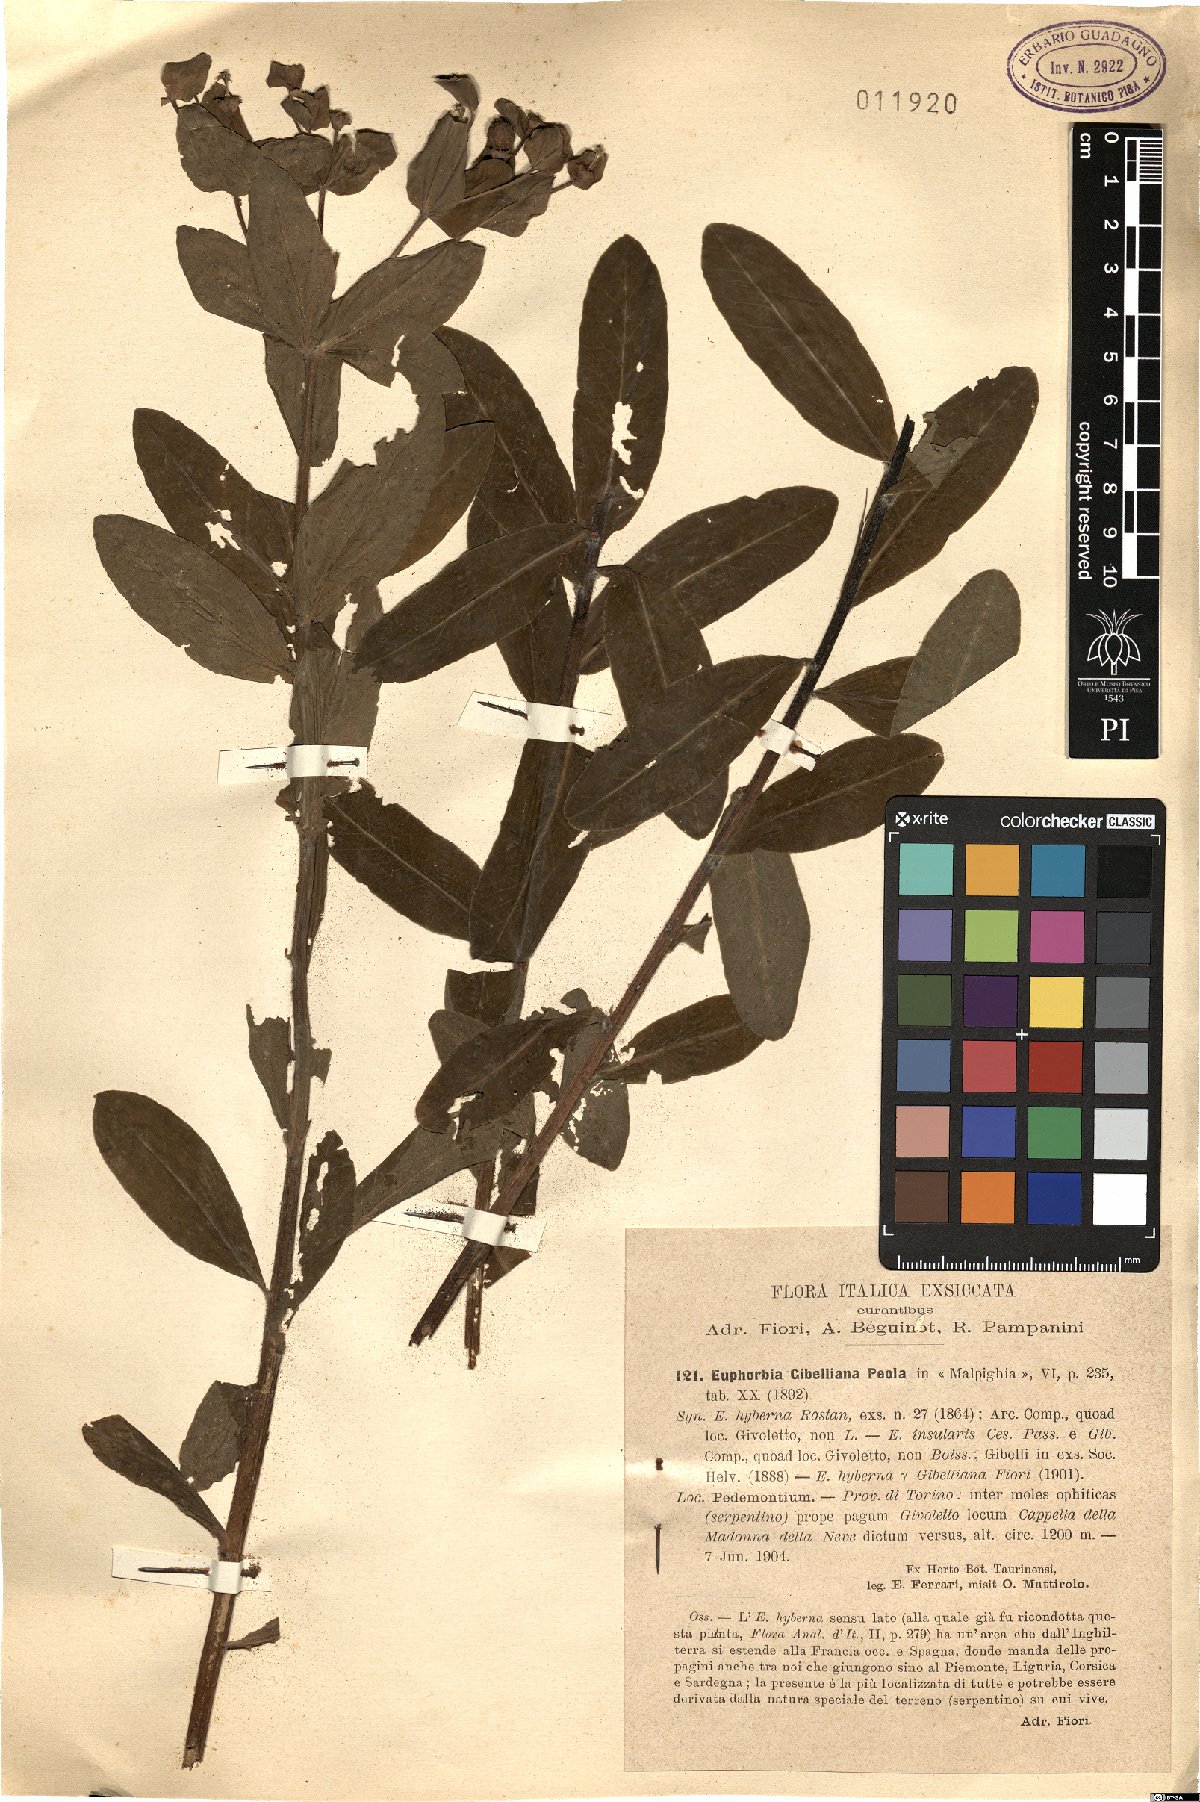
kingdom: Plantae
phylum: Tracheophyta
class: Magnoliopsida
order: Malpighiales
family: Euphorbiaceae
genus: Euphorbia
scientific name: Euphorbia gibelliana
